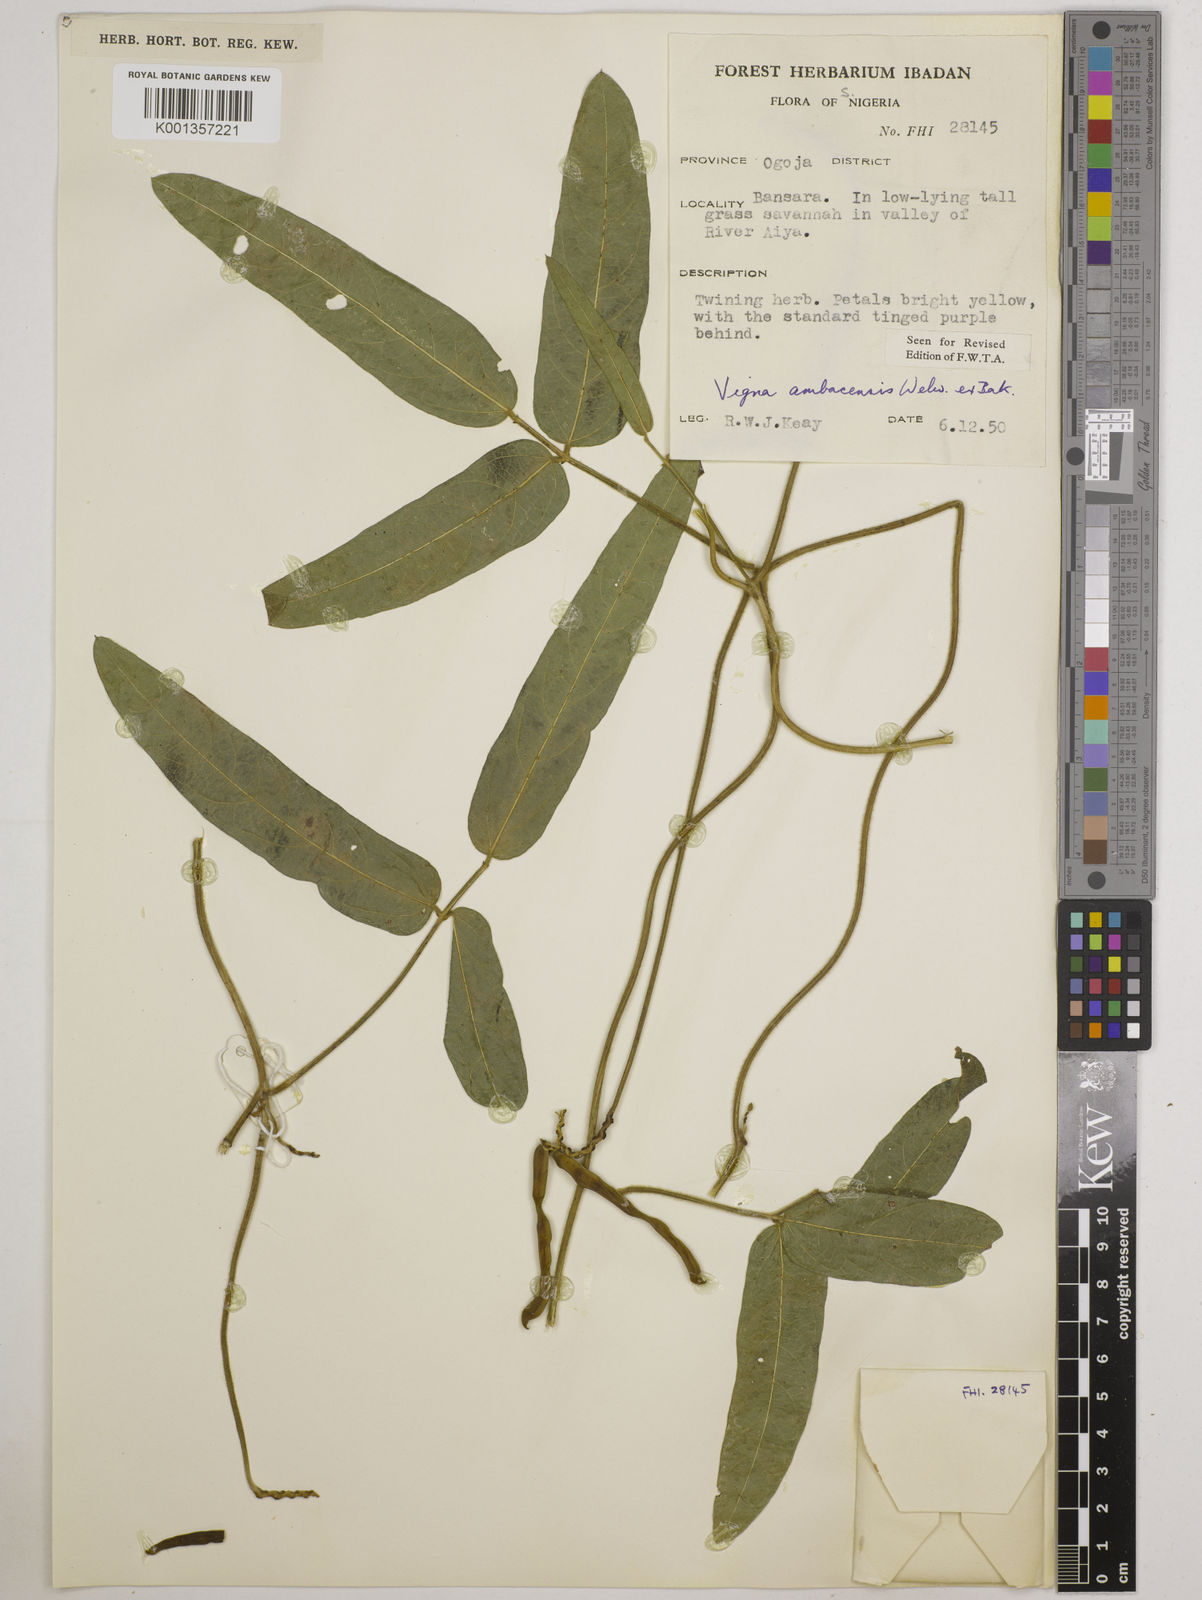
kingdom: Plantae
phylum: Tracheophyta
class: Magnoliopsida
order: Fabales
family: Fabaceae
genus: Vigna
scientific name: Vigna ambacensis
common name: Tsarkiyan zomo
